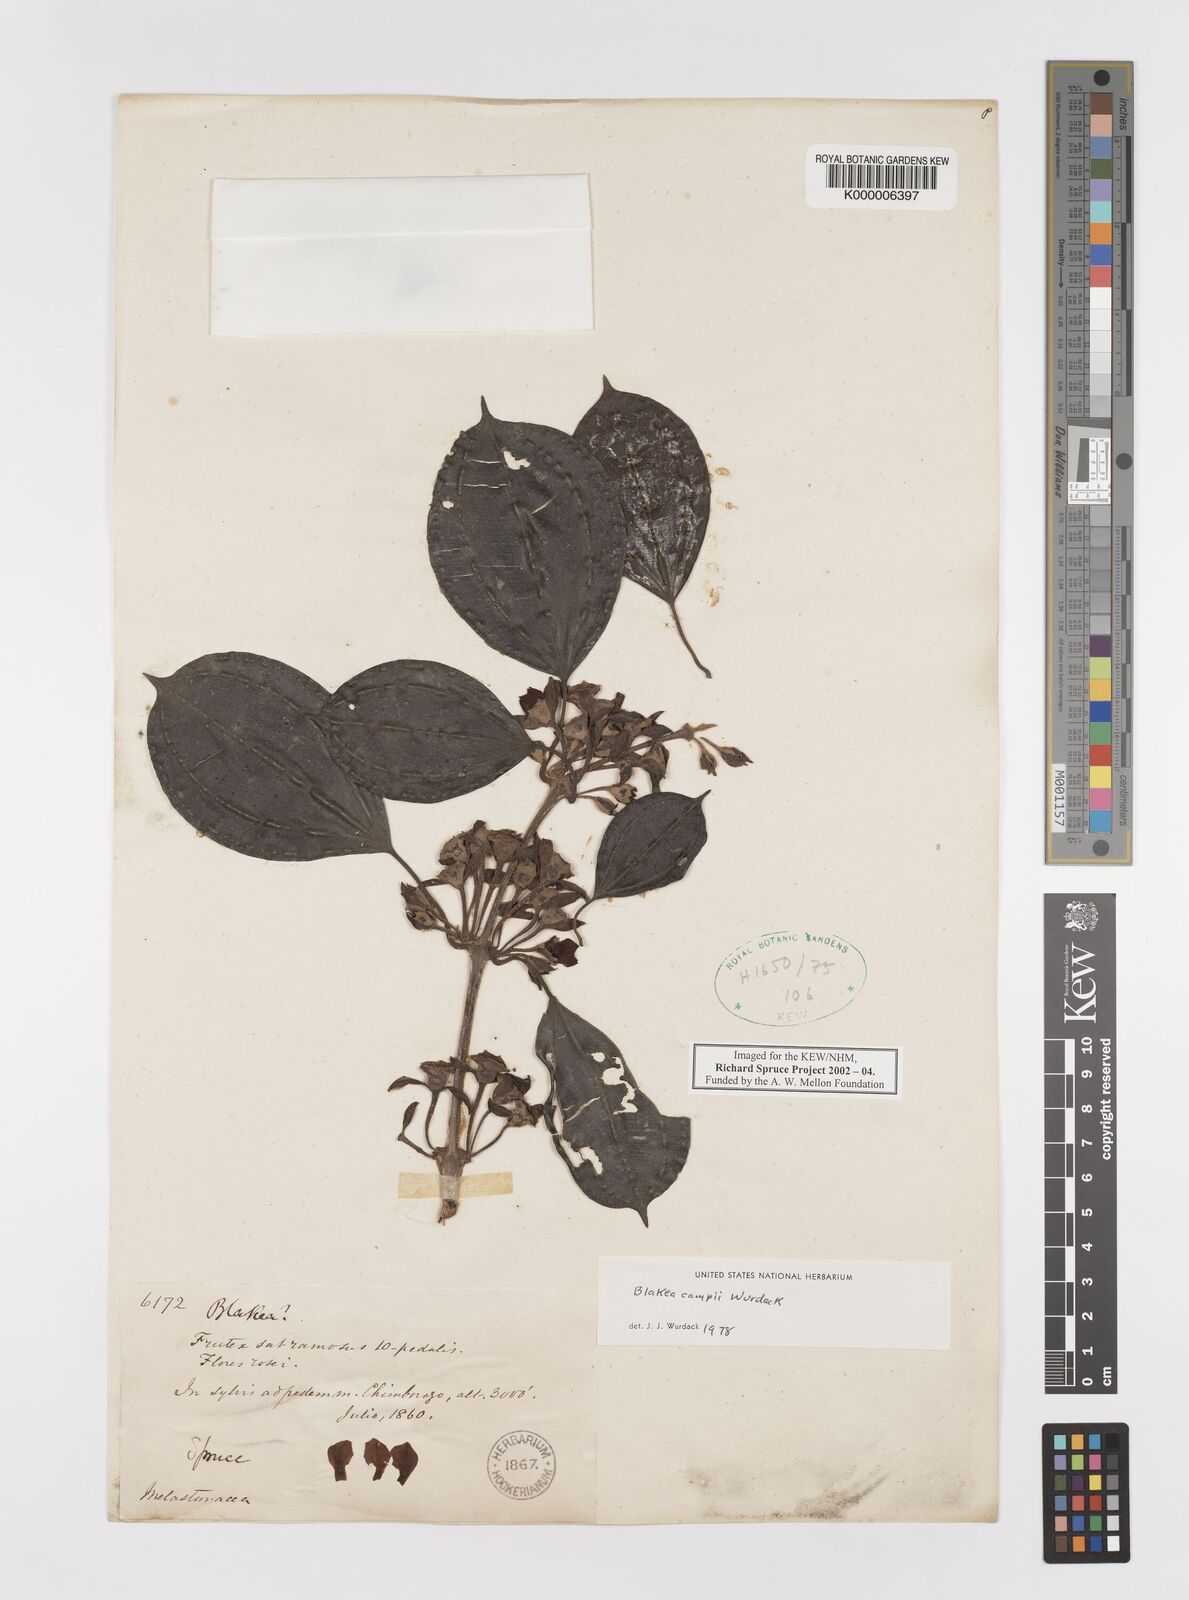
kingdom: Plantae
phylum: Tracheophyta
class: Magnoliopsida
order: Myrtales
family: Melastomataceae
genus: Blakea
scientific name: Blakea campii
